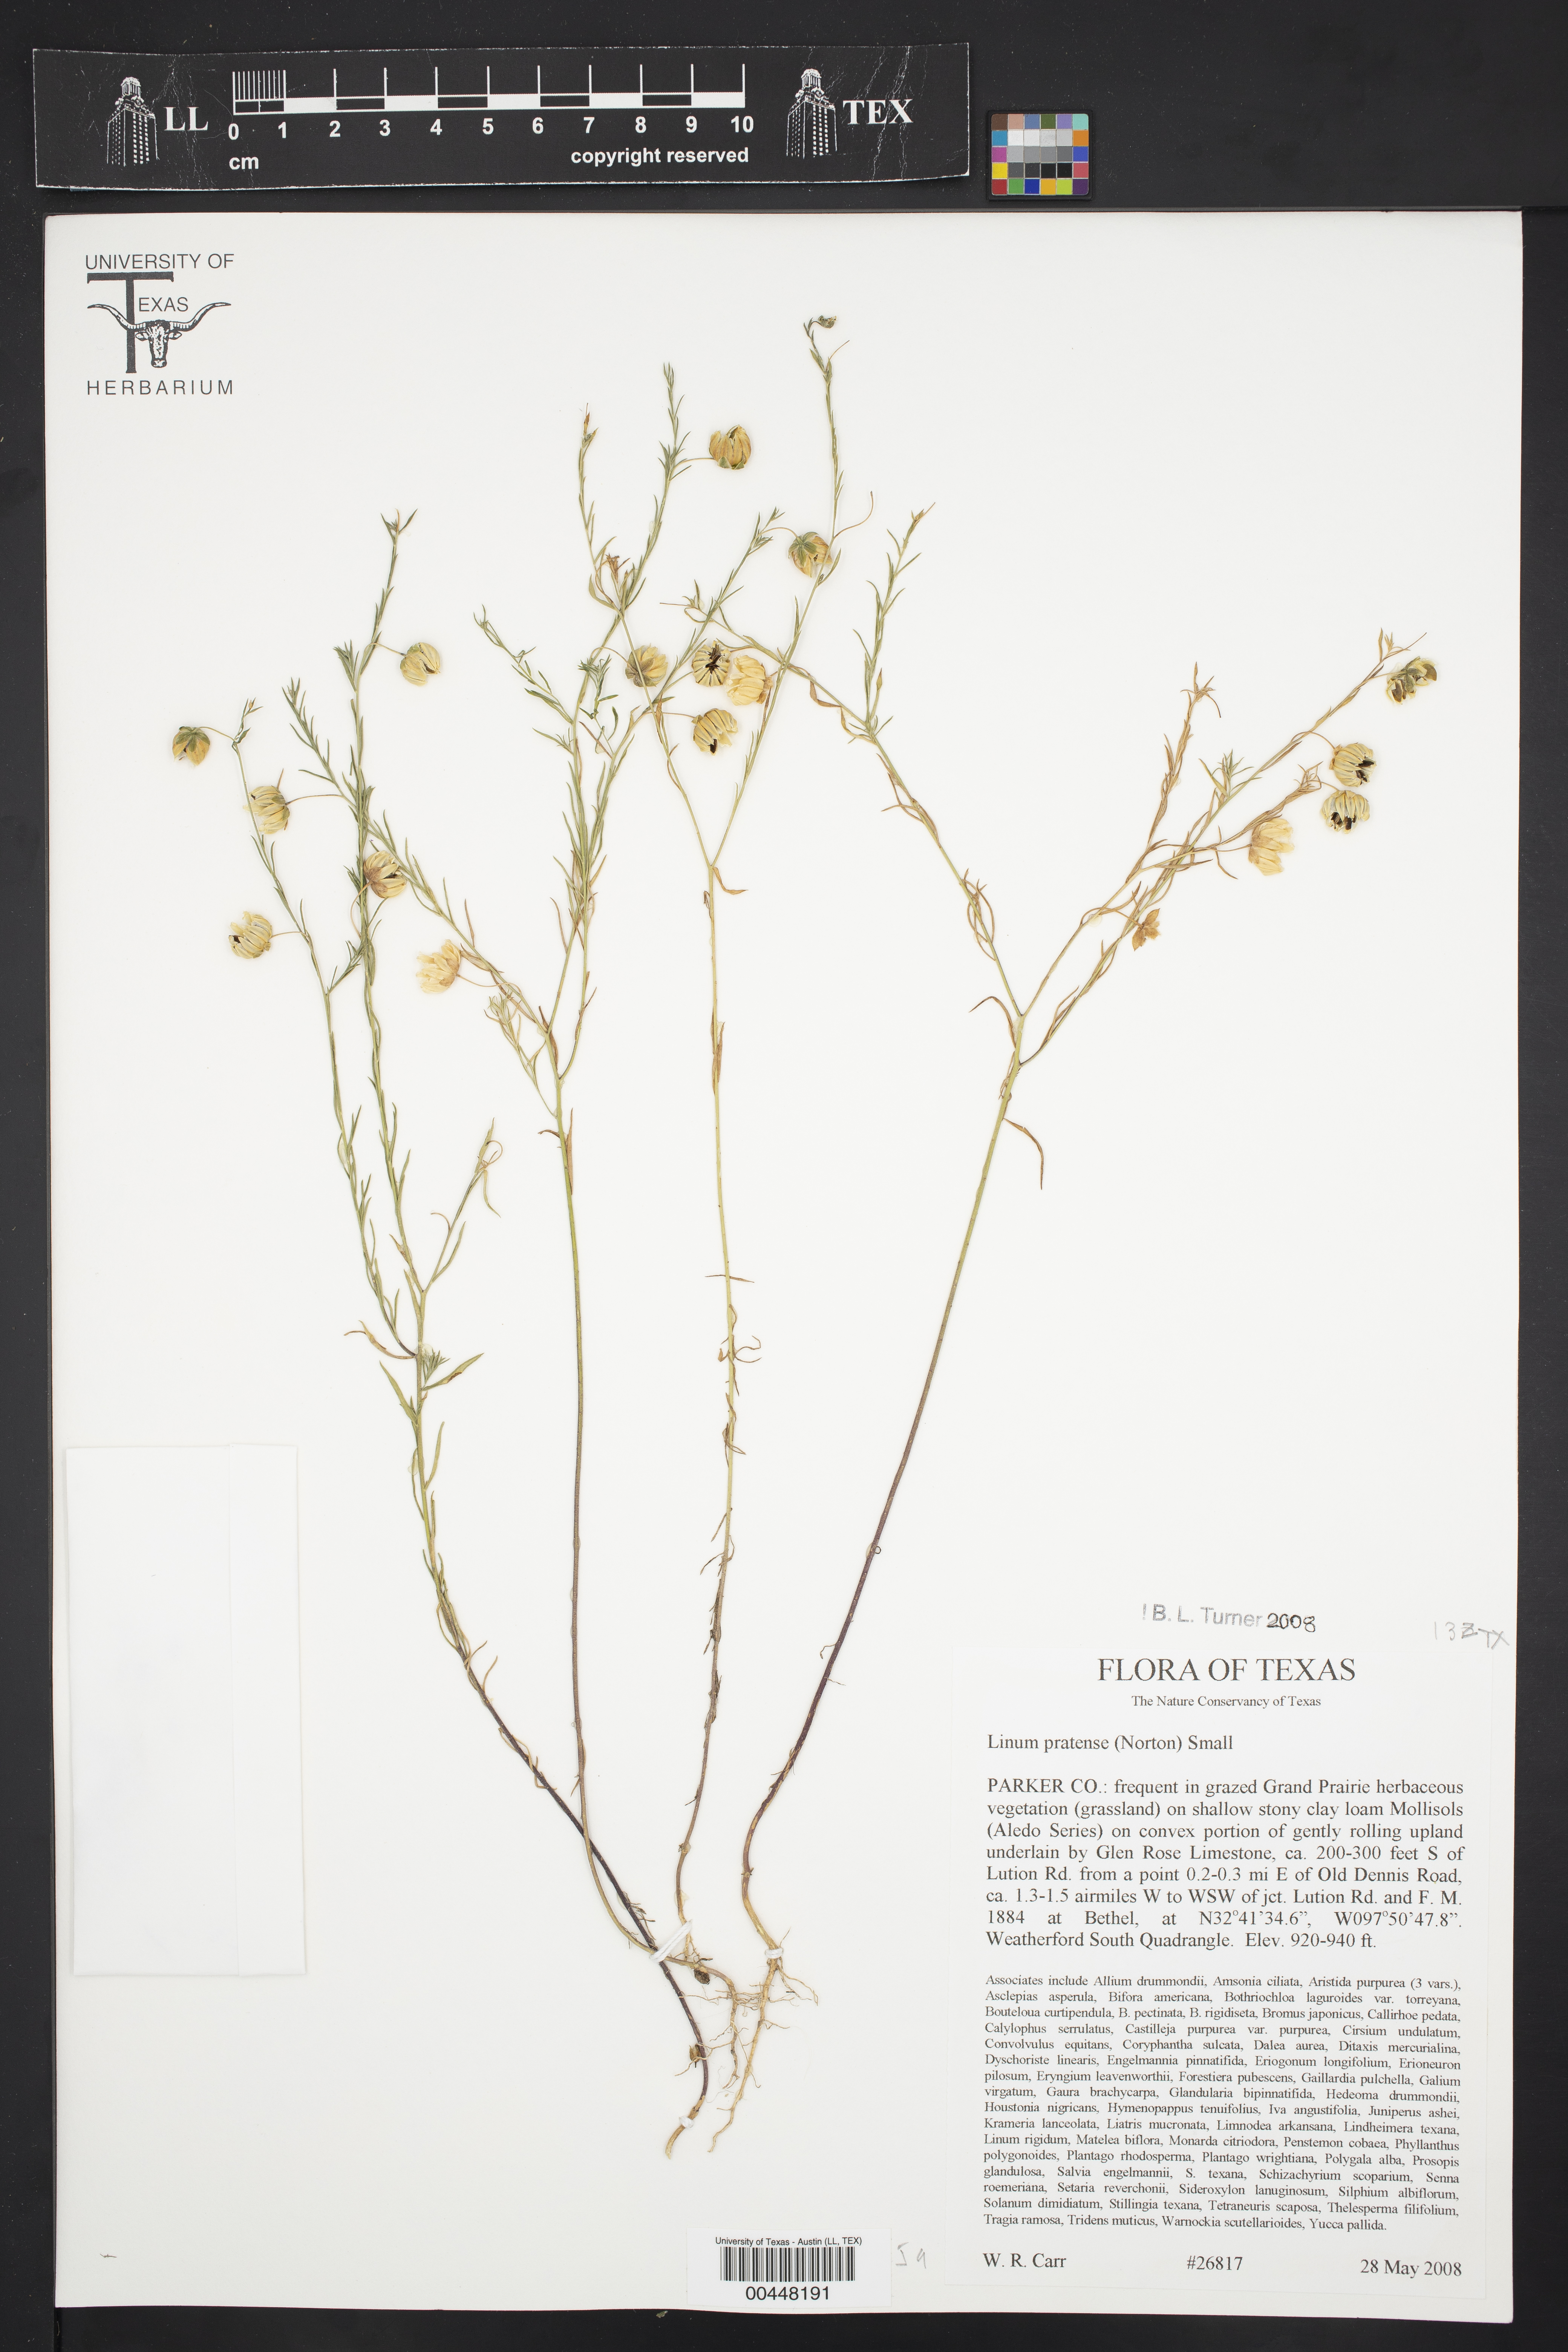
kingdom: Plantae
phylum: Tracheophyta
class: Magnoliopsida
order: Malpighiales
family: Linaceae
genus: Linum
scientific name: Linum pratense
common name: Norton's flax
